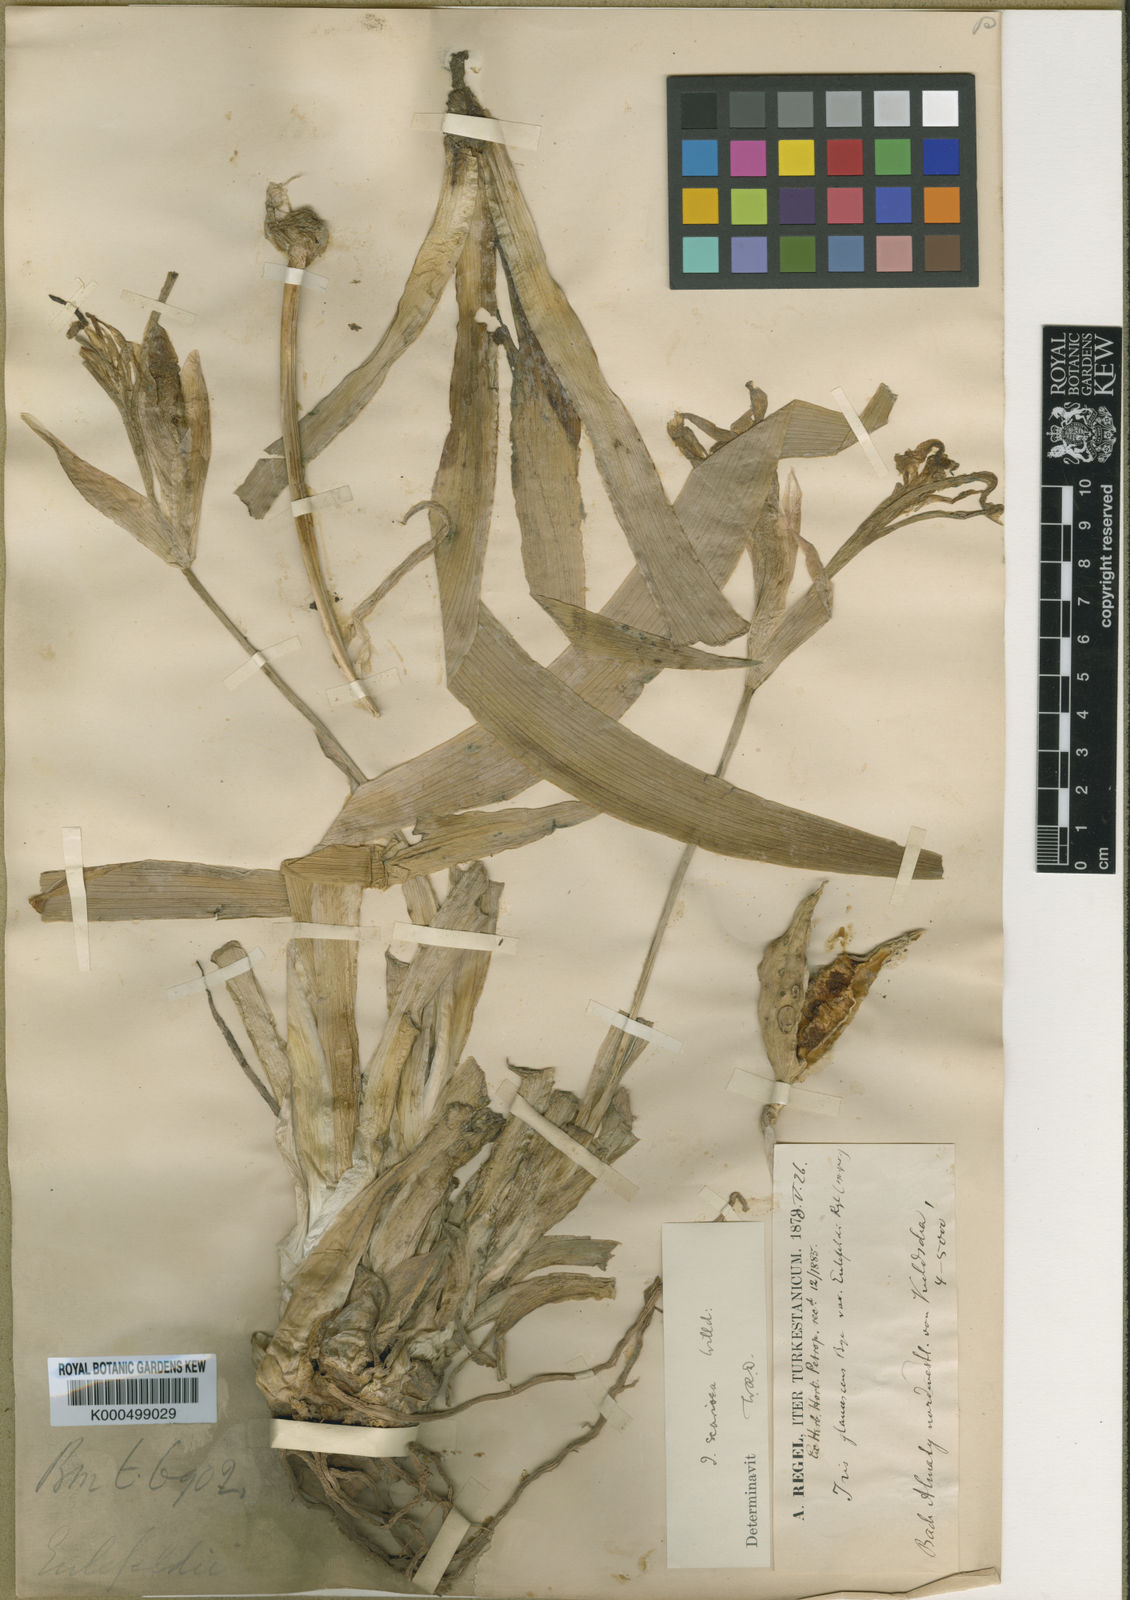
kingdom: Plantae
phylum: Tracheophyta
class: Liliopsida
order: Asparagales
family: Iridaceae
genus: Iris
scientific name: Iris
